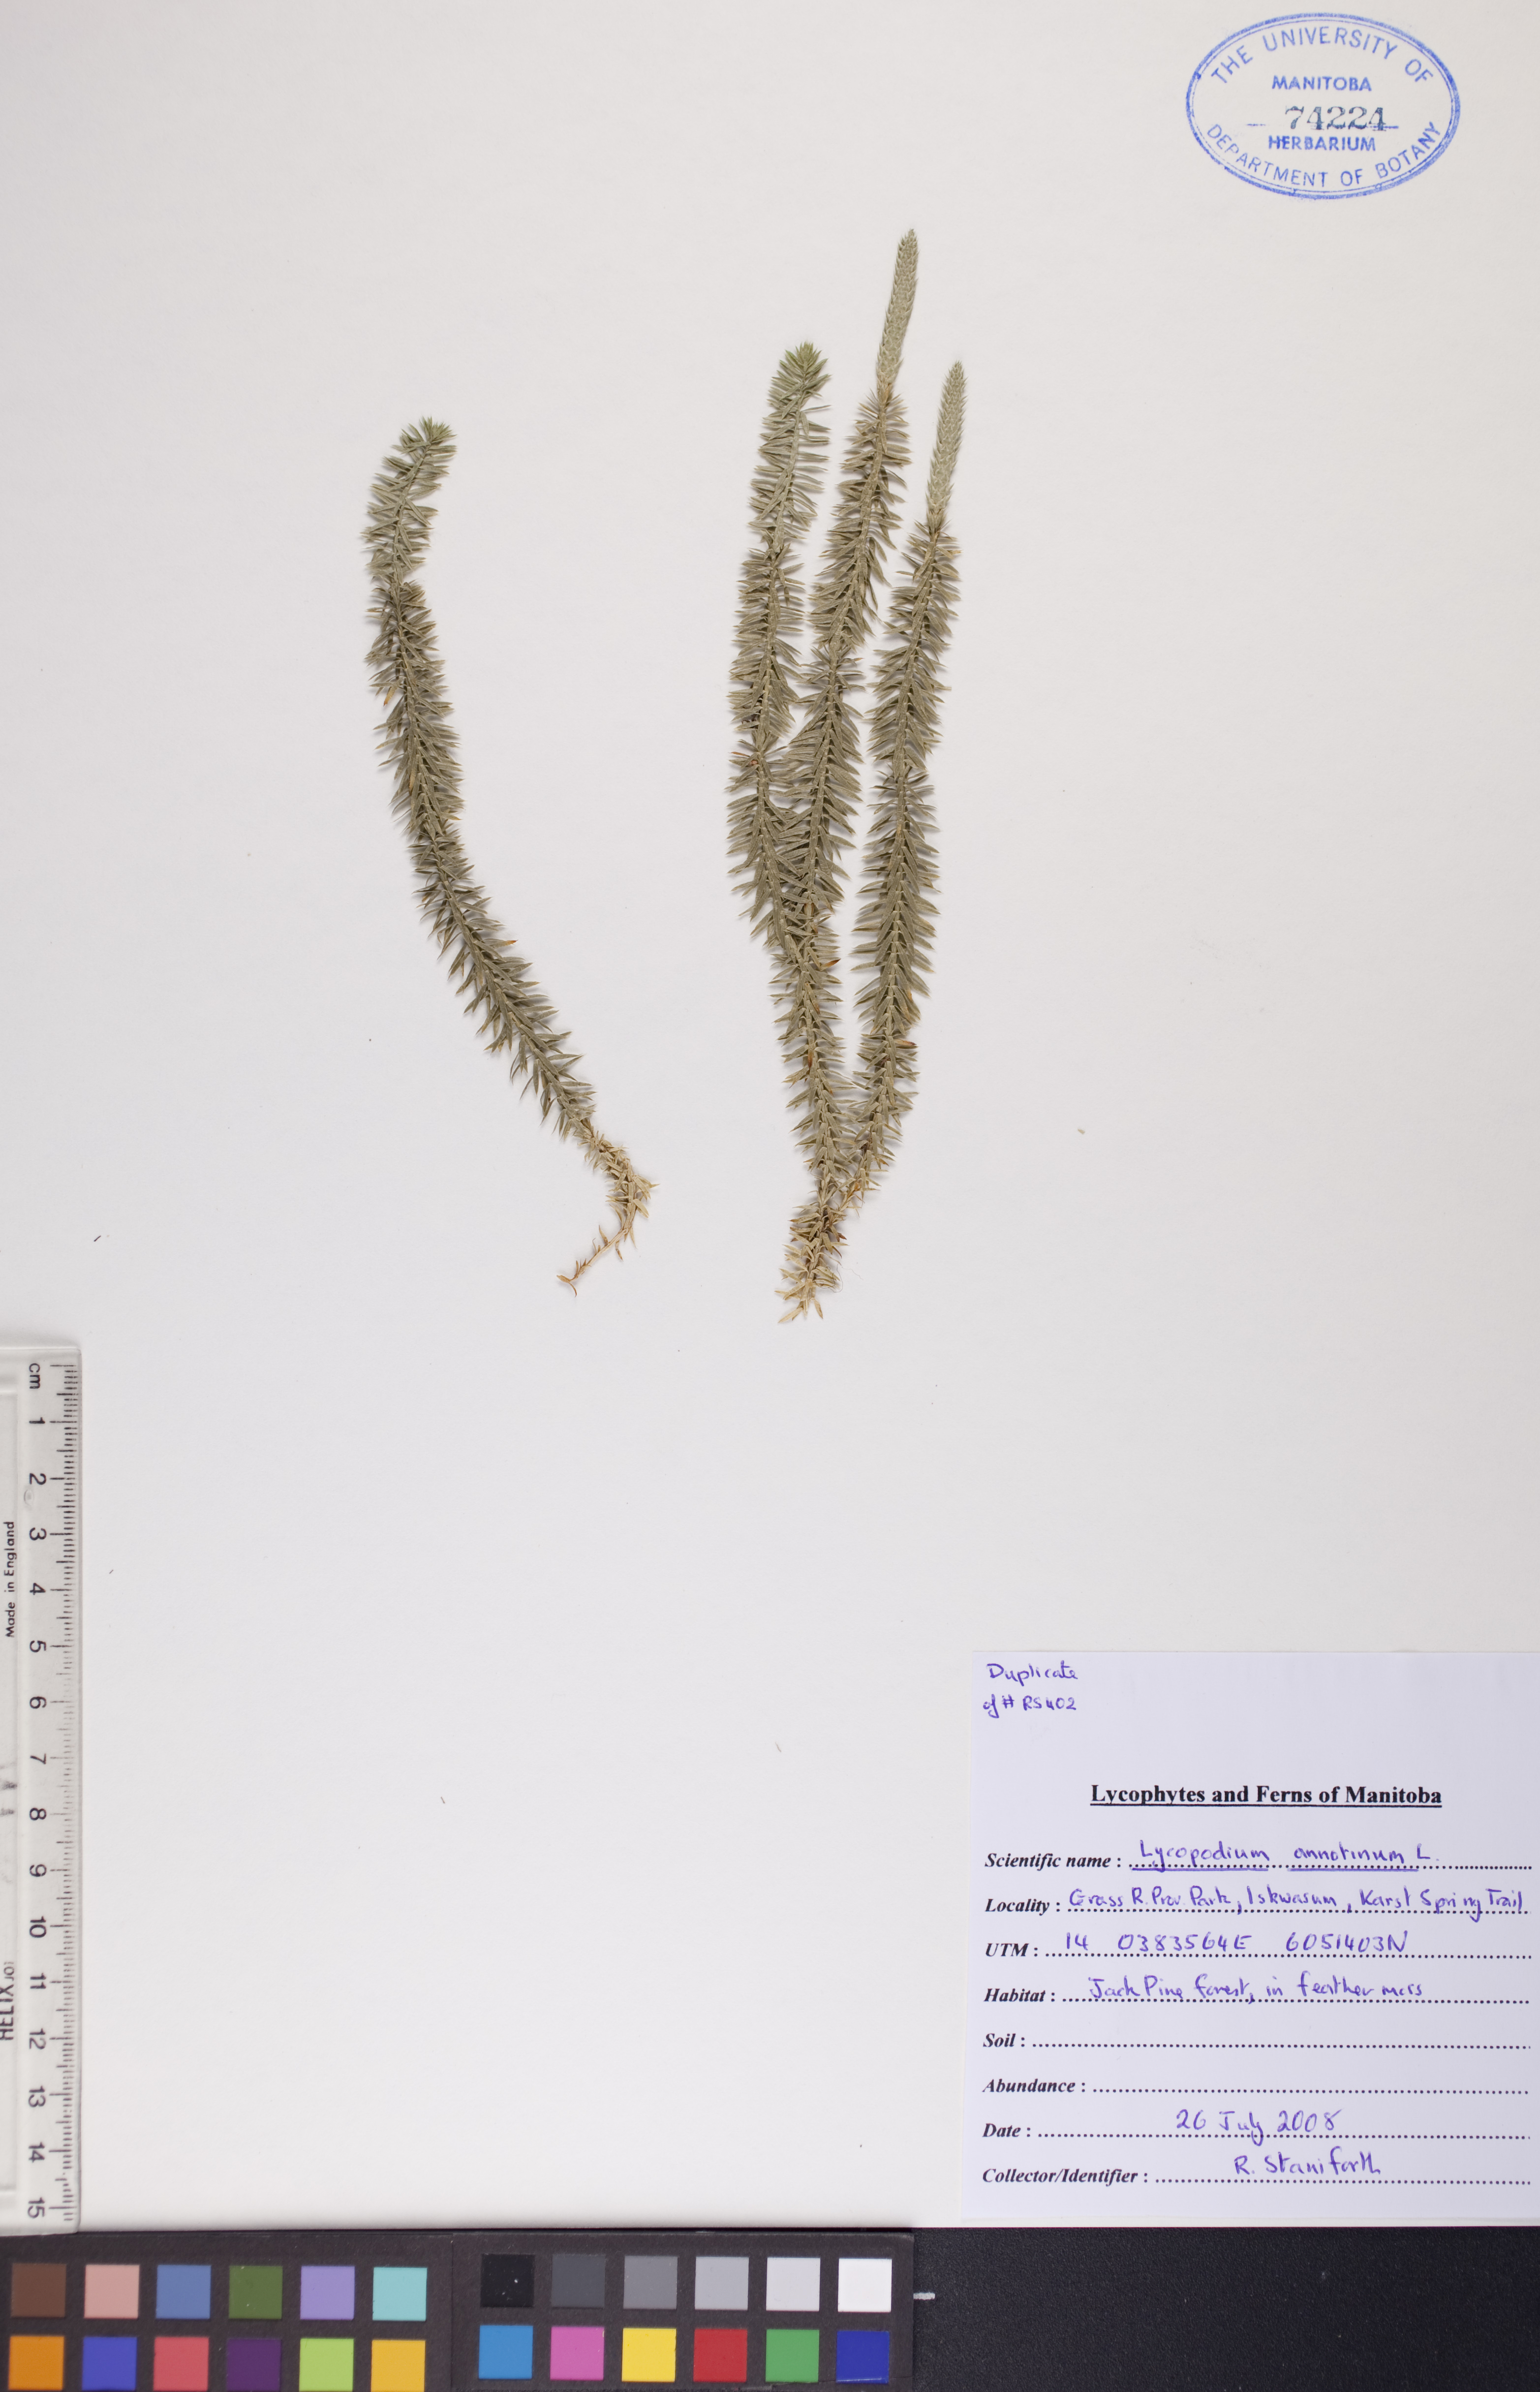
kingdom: Plantae
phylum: Tracheophyta
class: Lycopodiopsida
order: Lycopodiales
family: Lycopodiaceae
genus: Spinulum
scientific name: Spinulum annotinum
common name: Interrupted club-moss
